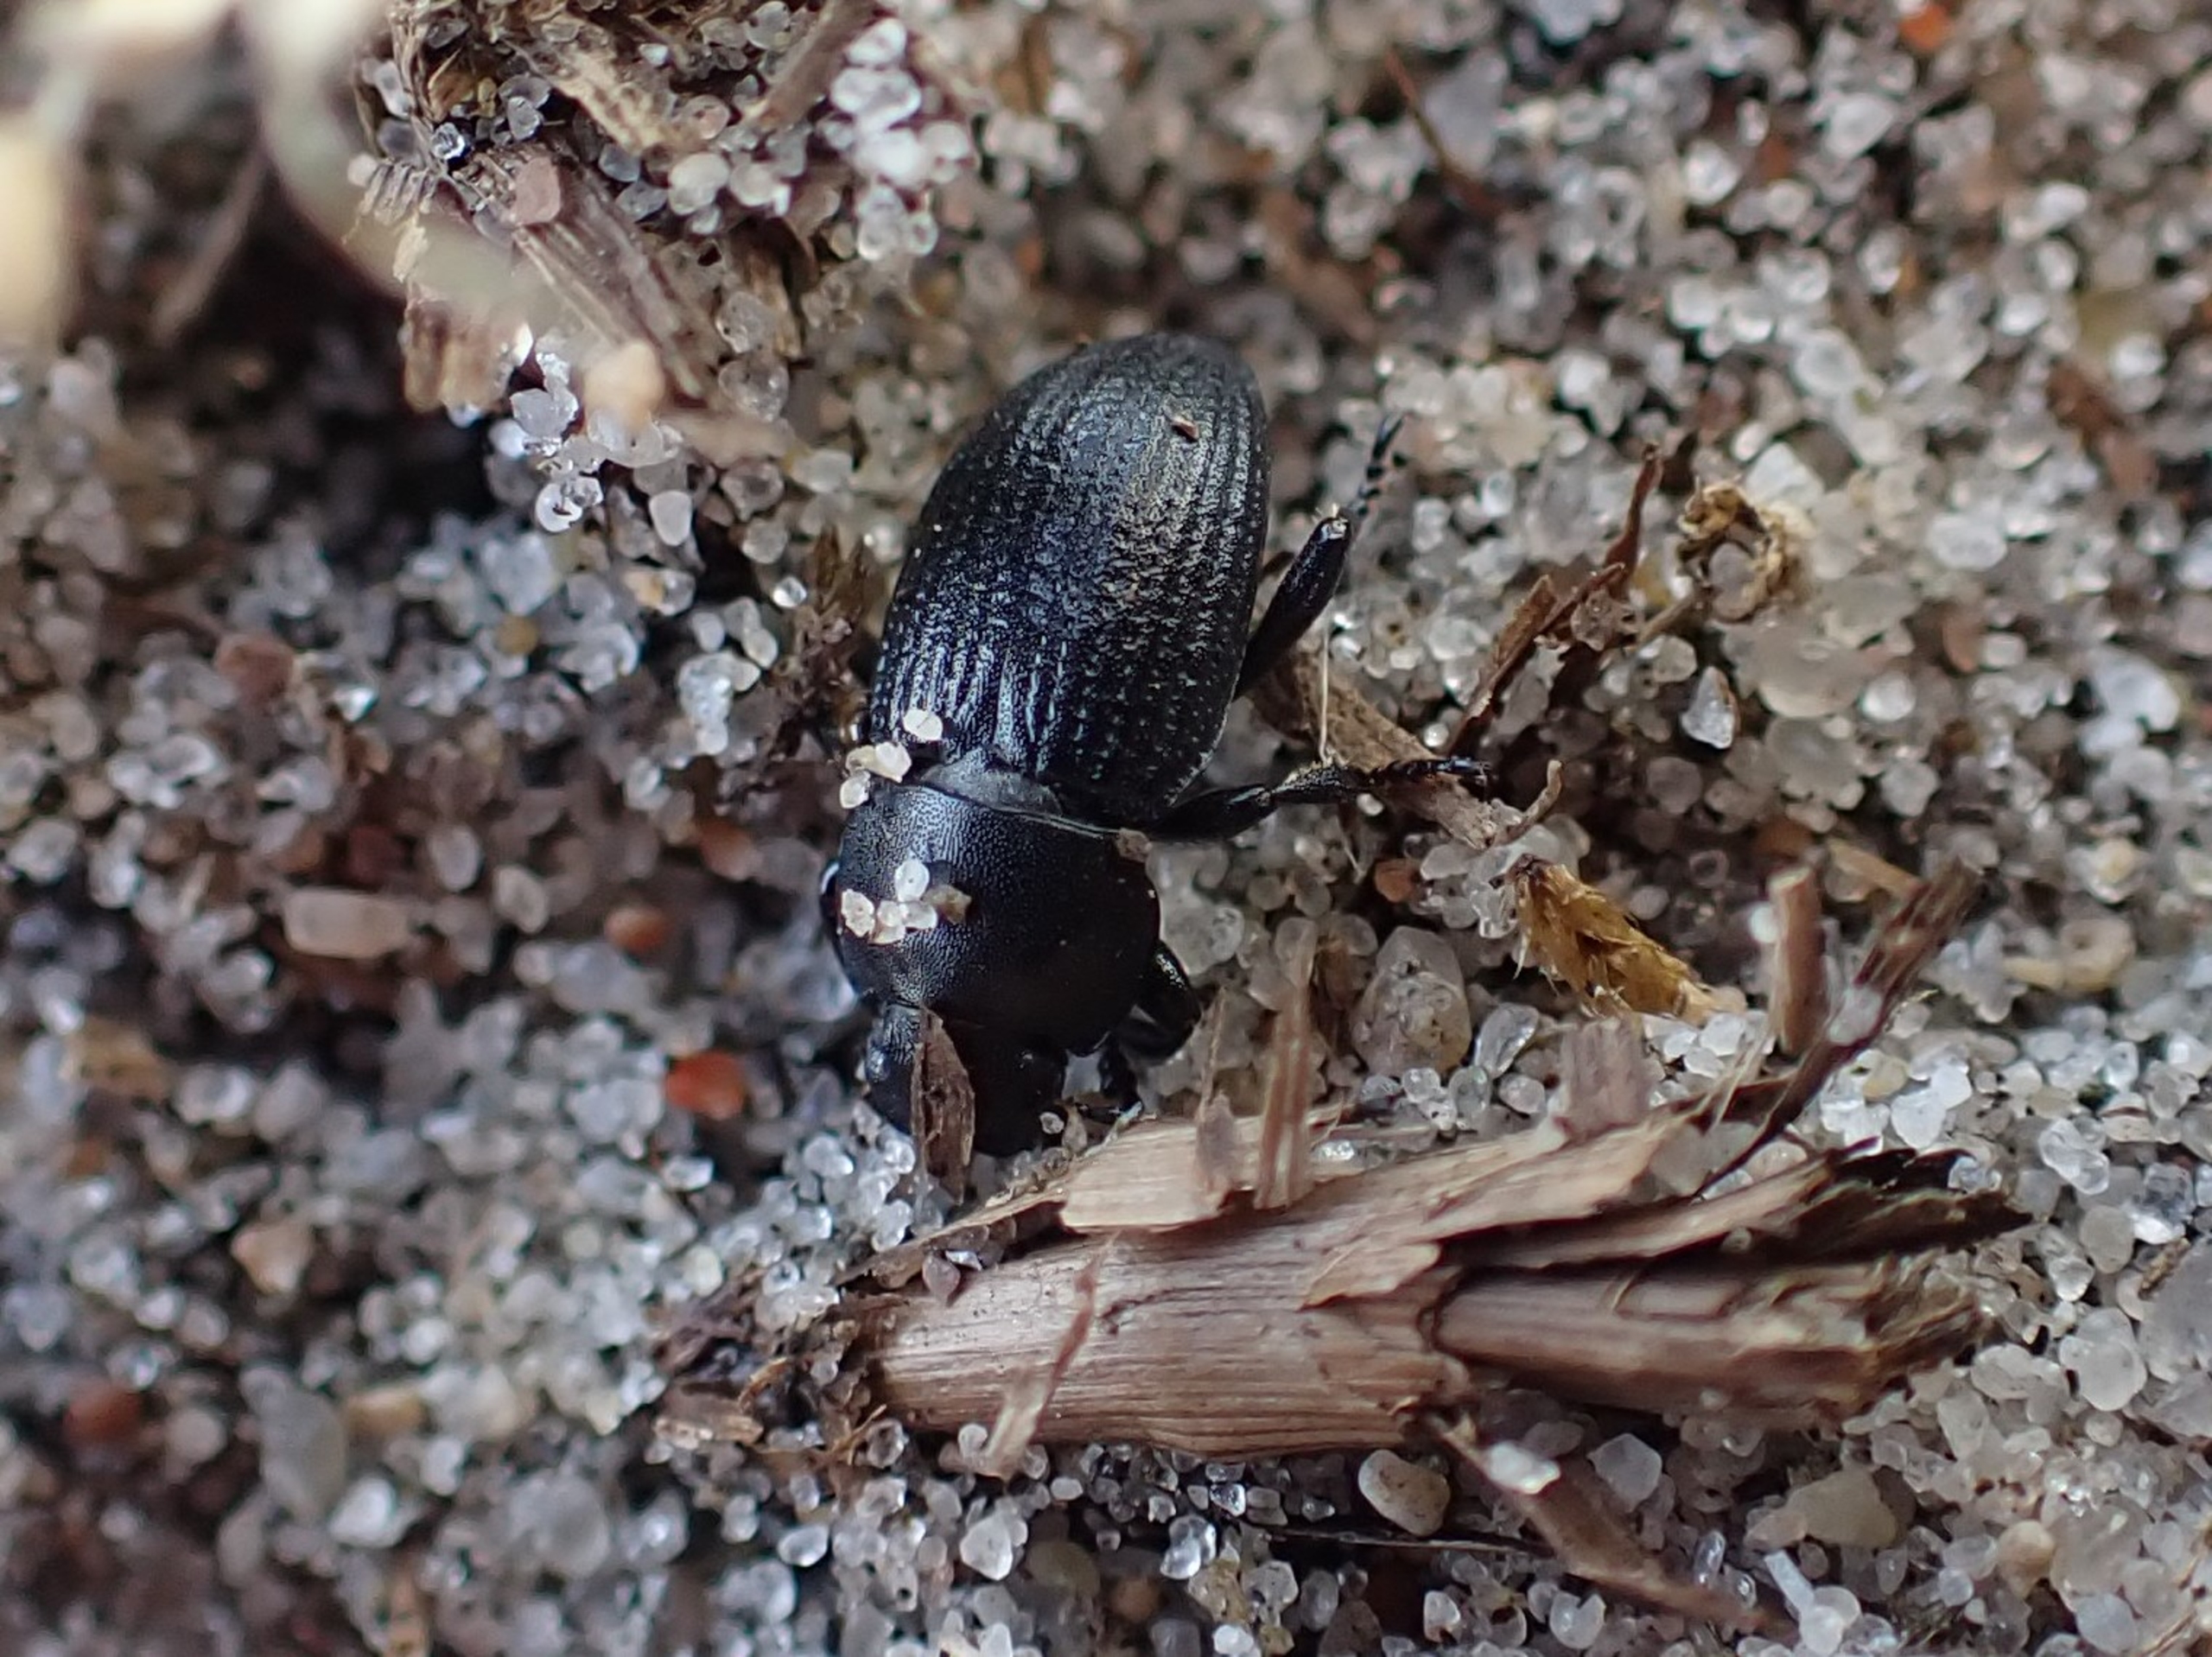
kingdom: Animalia
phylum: Arthropoda
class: Insecta
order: Coleoptera
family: Tenebrionidae
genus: Phylan
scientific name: Phylan gibbus
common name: Stor klitskyggebille
